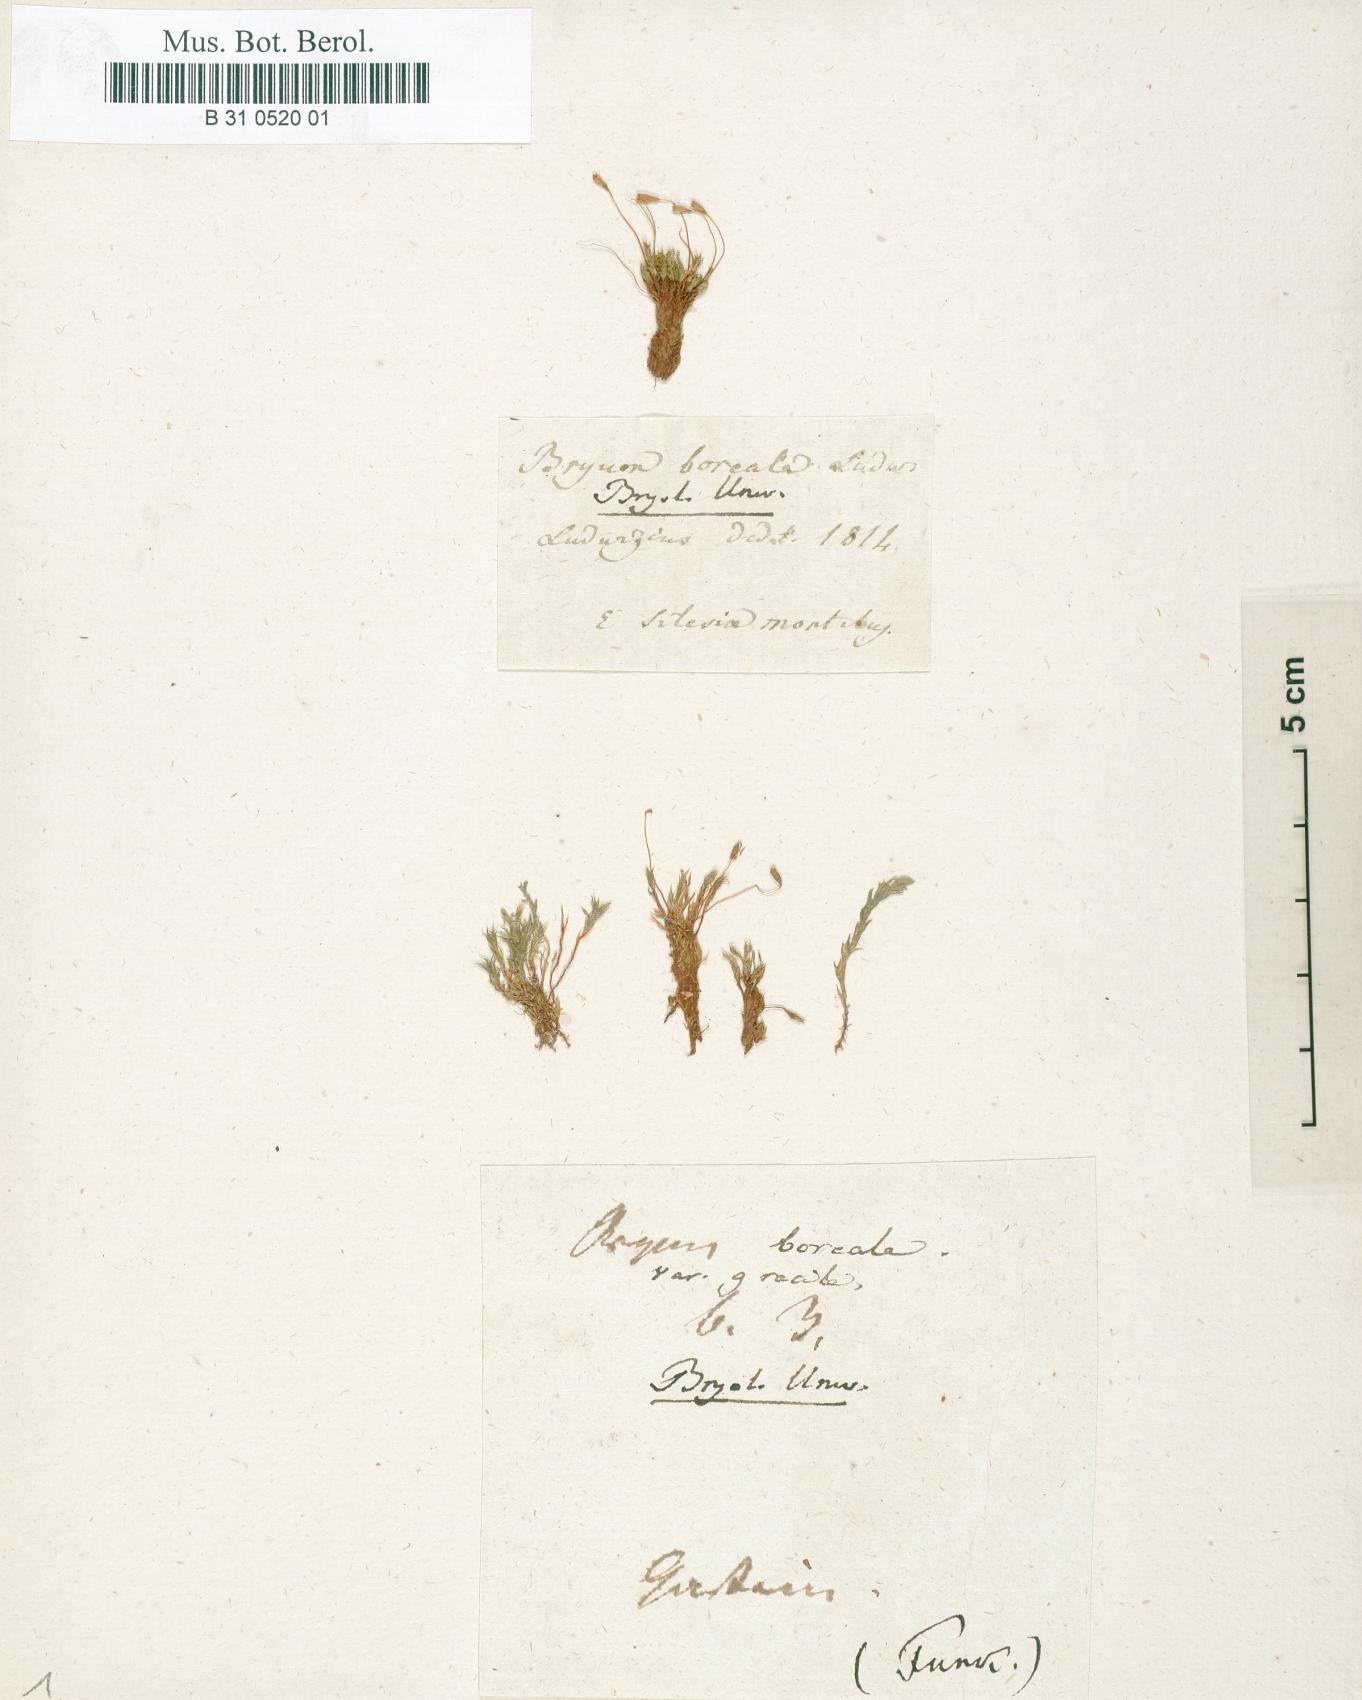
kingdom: Plantae
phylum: Bryophyta
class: Bryopsida
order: Bryales
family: Bryaceae
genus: Ptychostomum
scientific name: Ptychostomum pallescens
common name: Tall-clustered thread-moss
